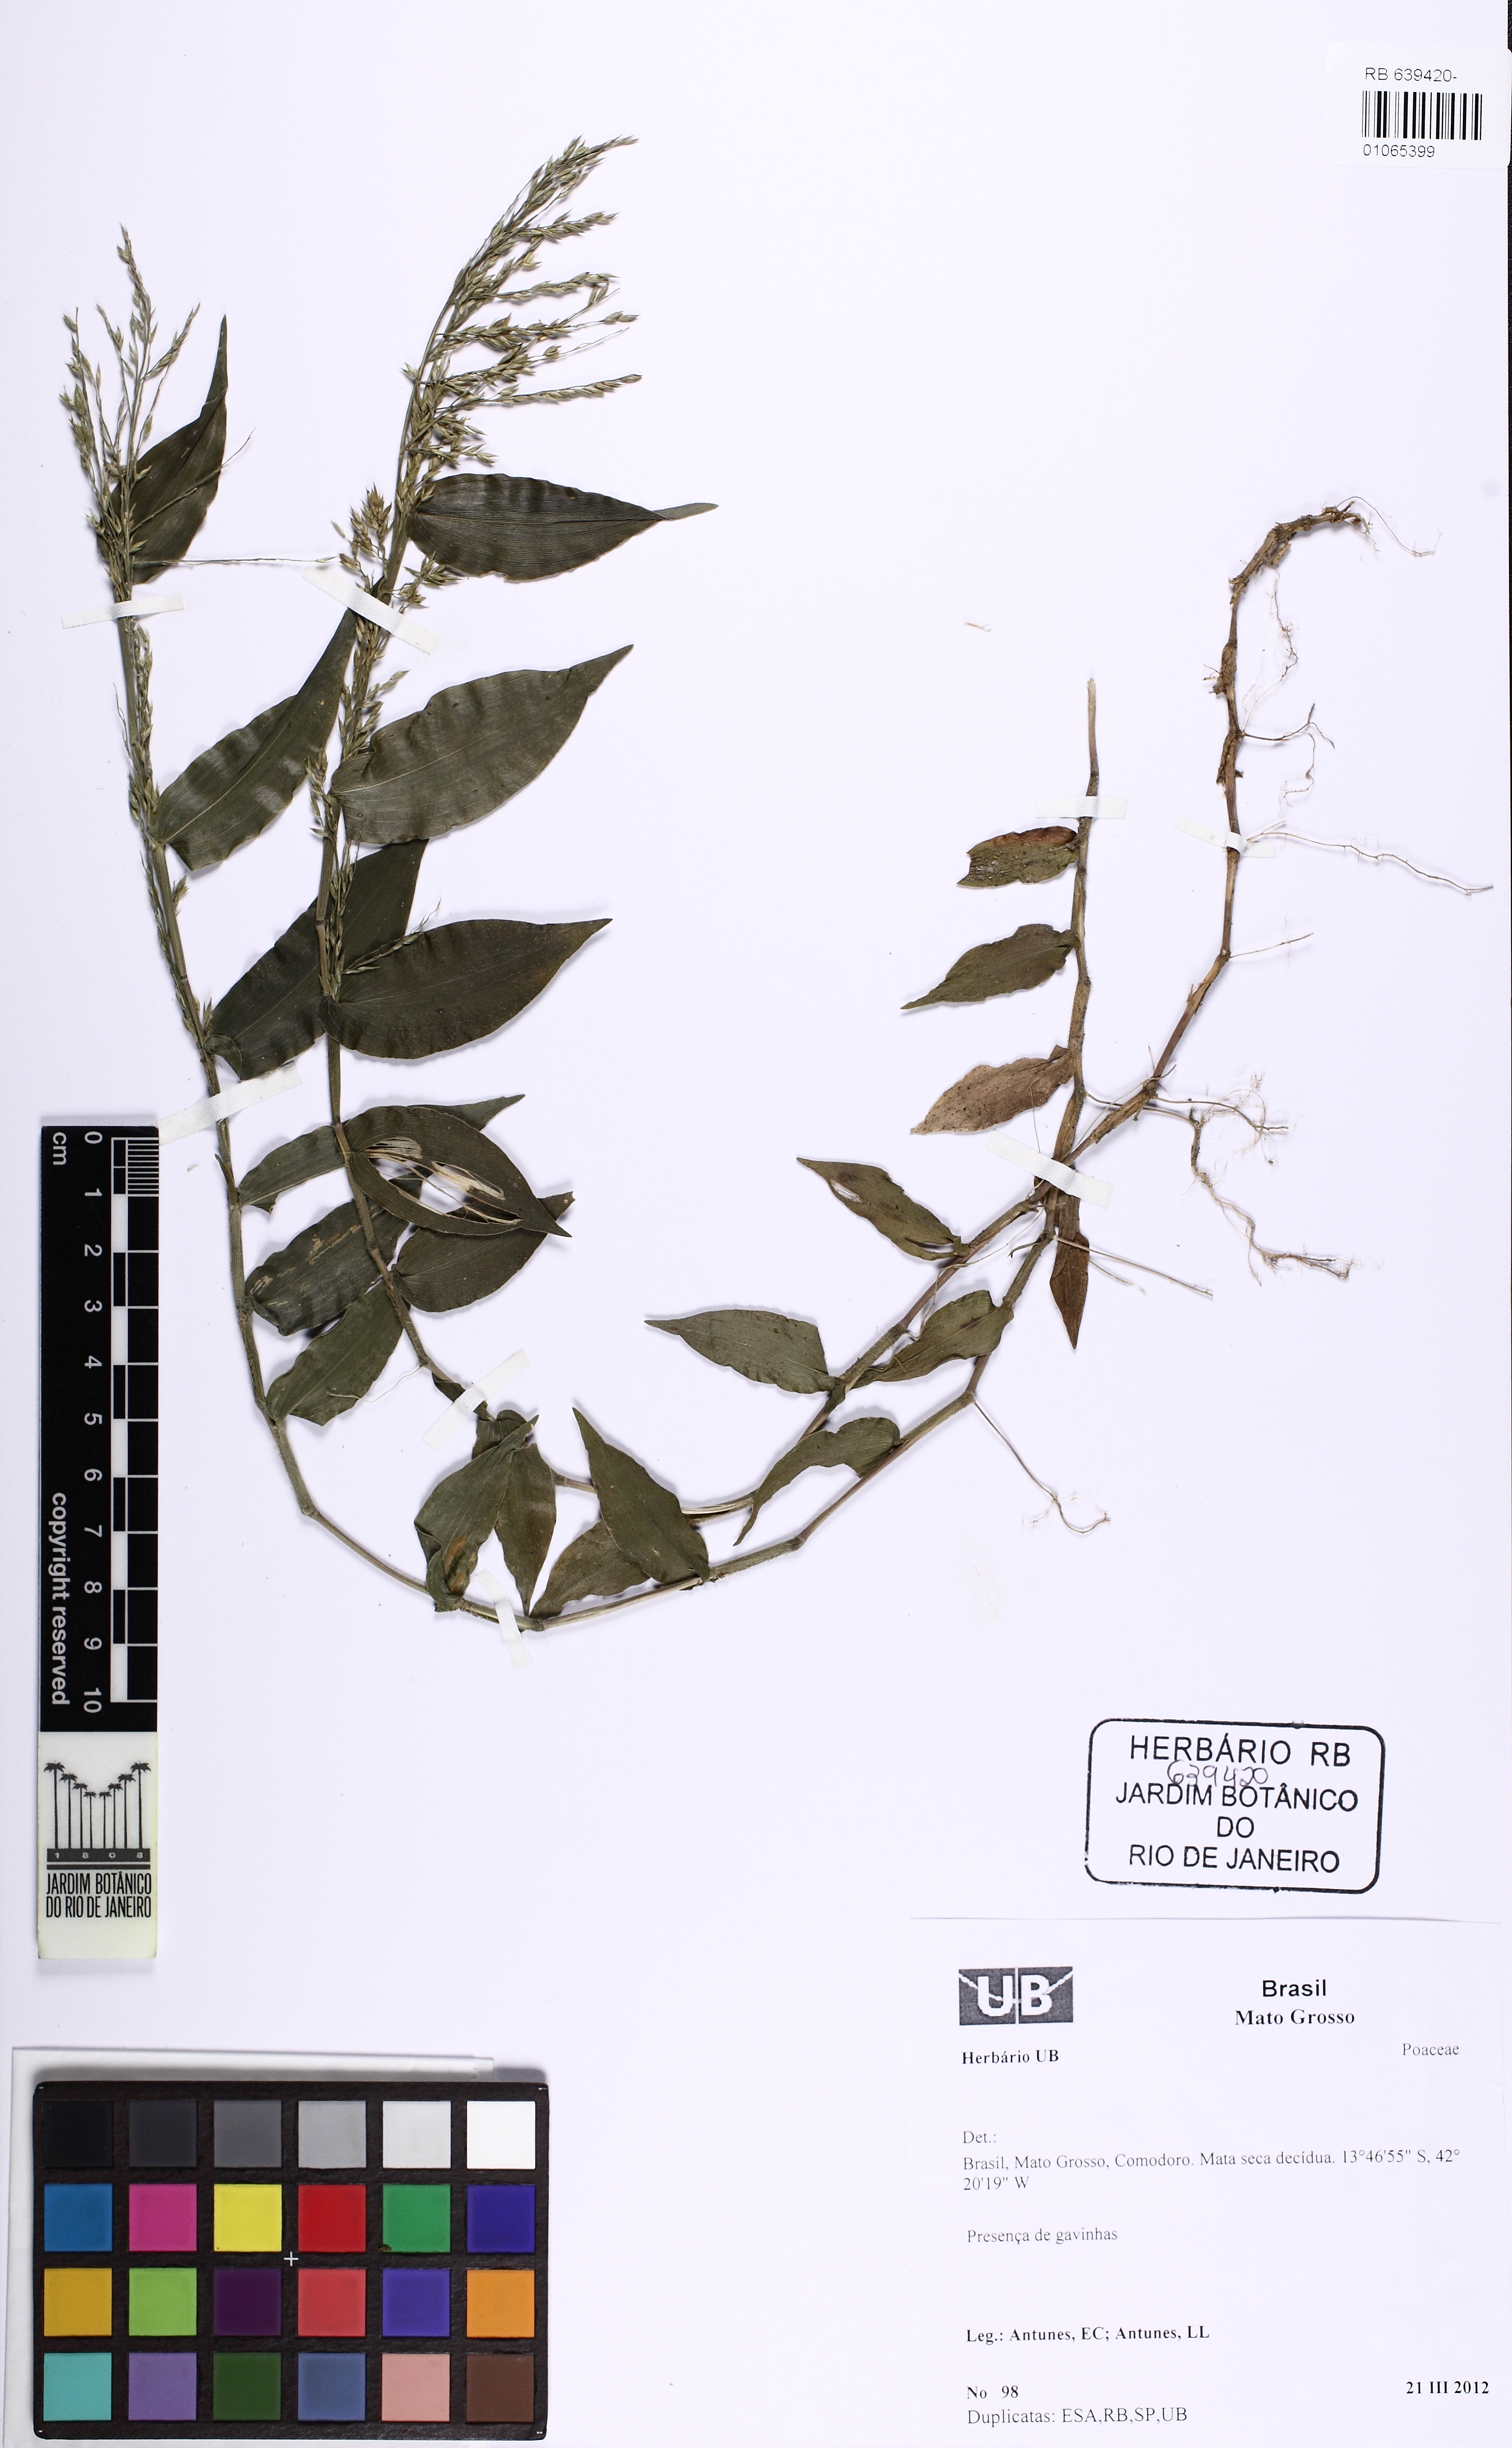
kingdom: Plantae
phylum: Tracheophyta
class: Liliopsida
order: Poales
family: Poaceae
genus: Ichnanthus
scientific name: Ichnanthus
